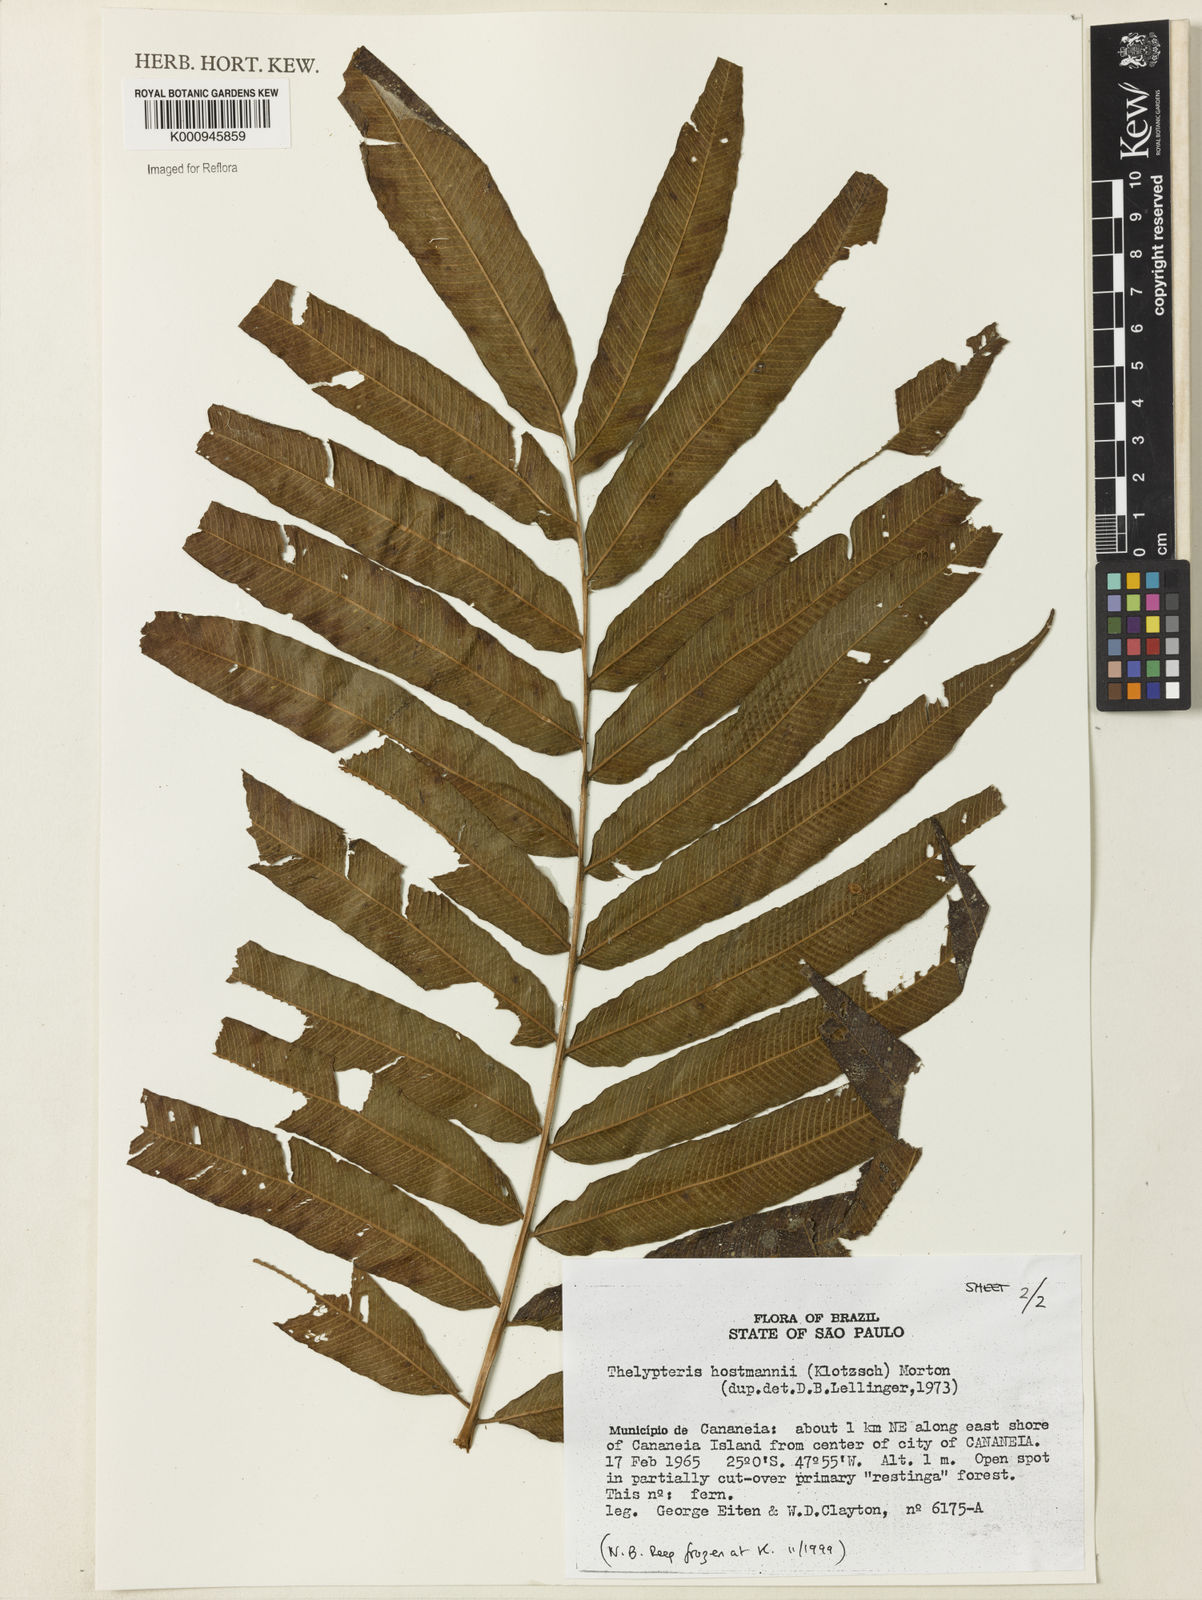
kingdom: Plantae
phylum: Tracheophyta
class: Polypodiopsida
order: Polypodiales
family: Thelypteridaceae
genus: Meniscium
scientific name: Meniscium hostmannii
